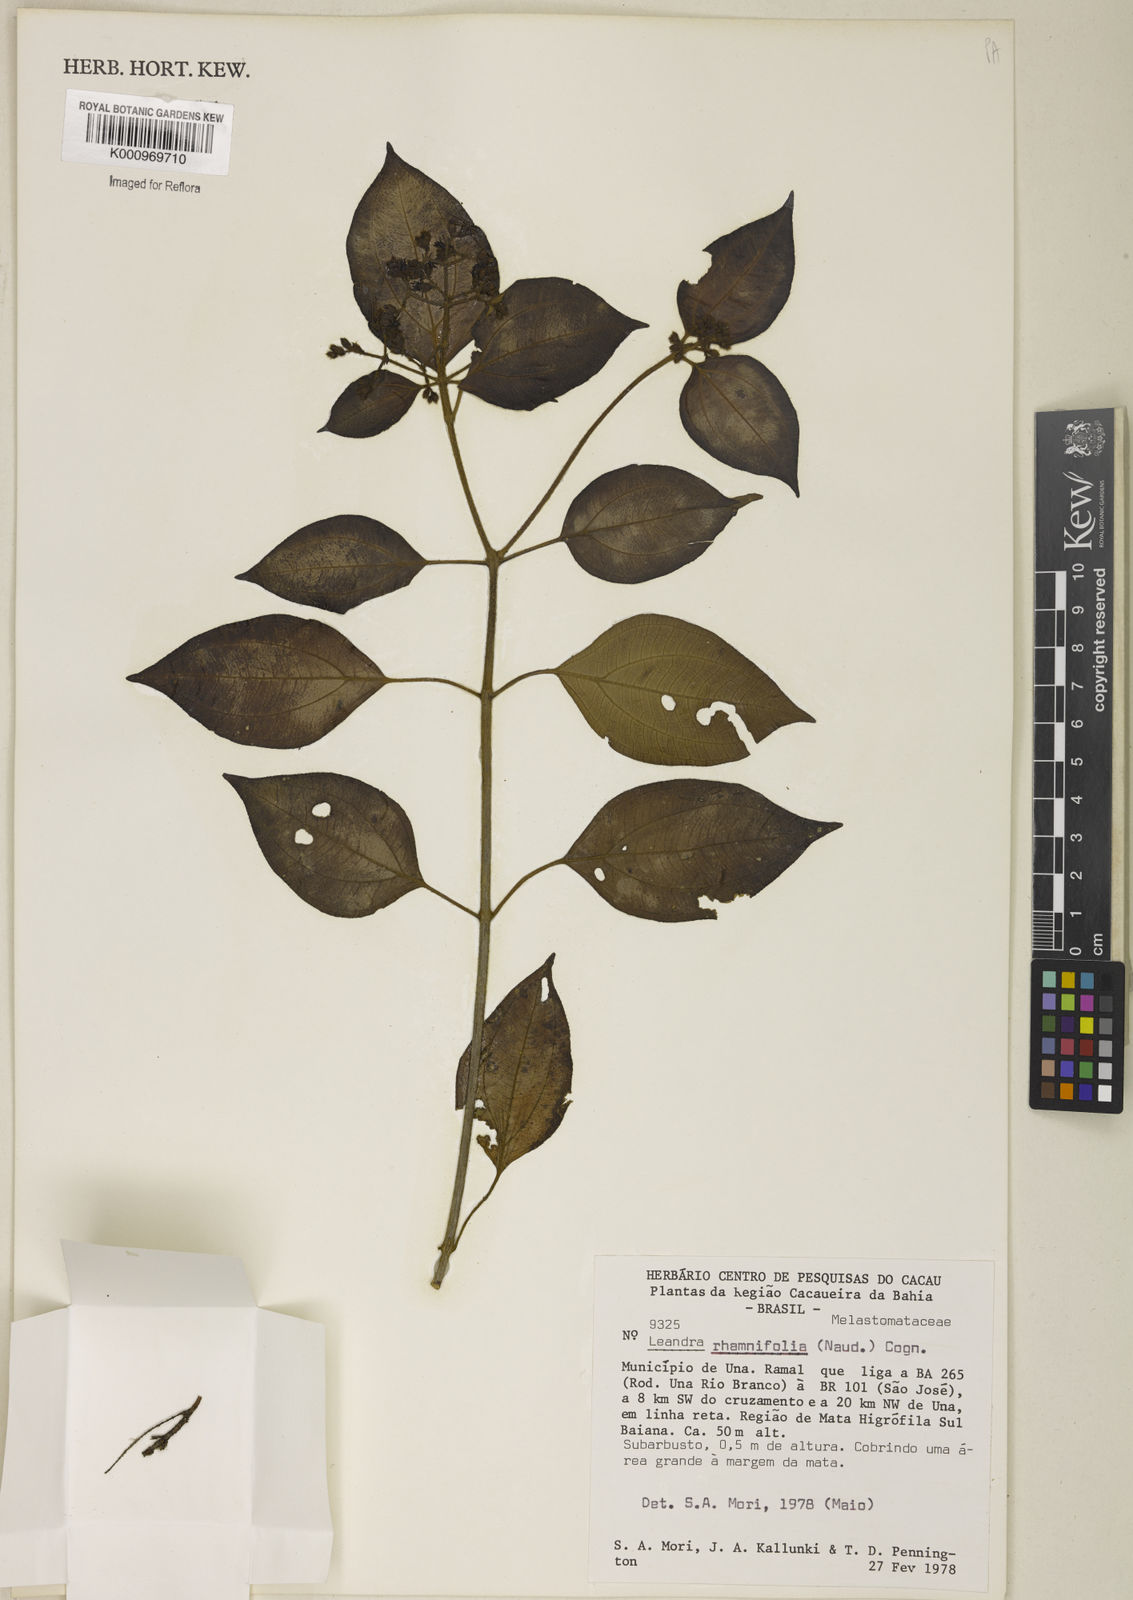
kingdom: Plantae
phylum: Tracheophyta
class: Magnoliopsida
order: Myrtales
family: Melastomataceae
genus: Miconia
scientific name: Miconia rhamnifolia
